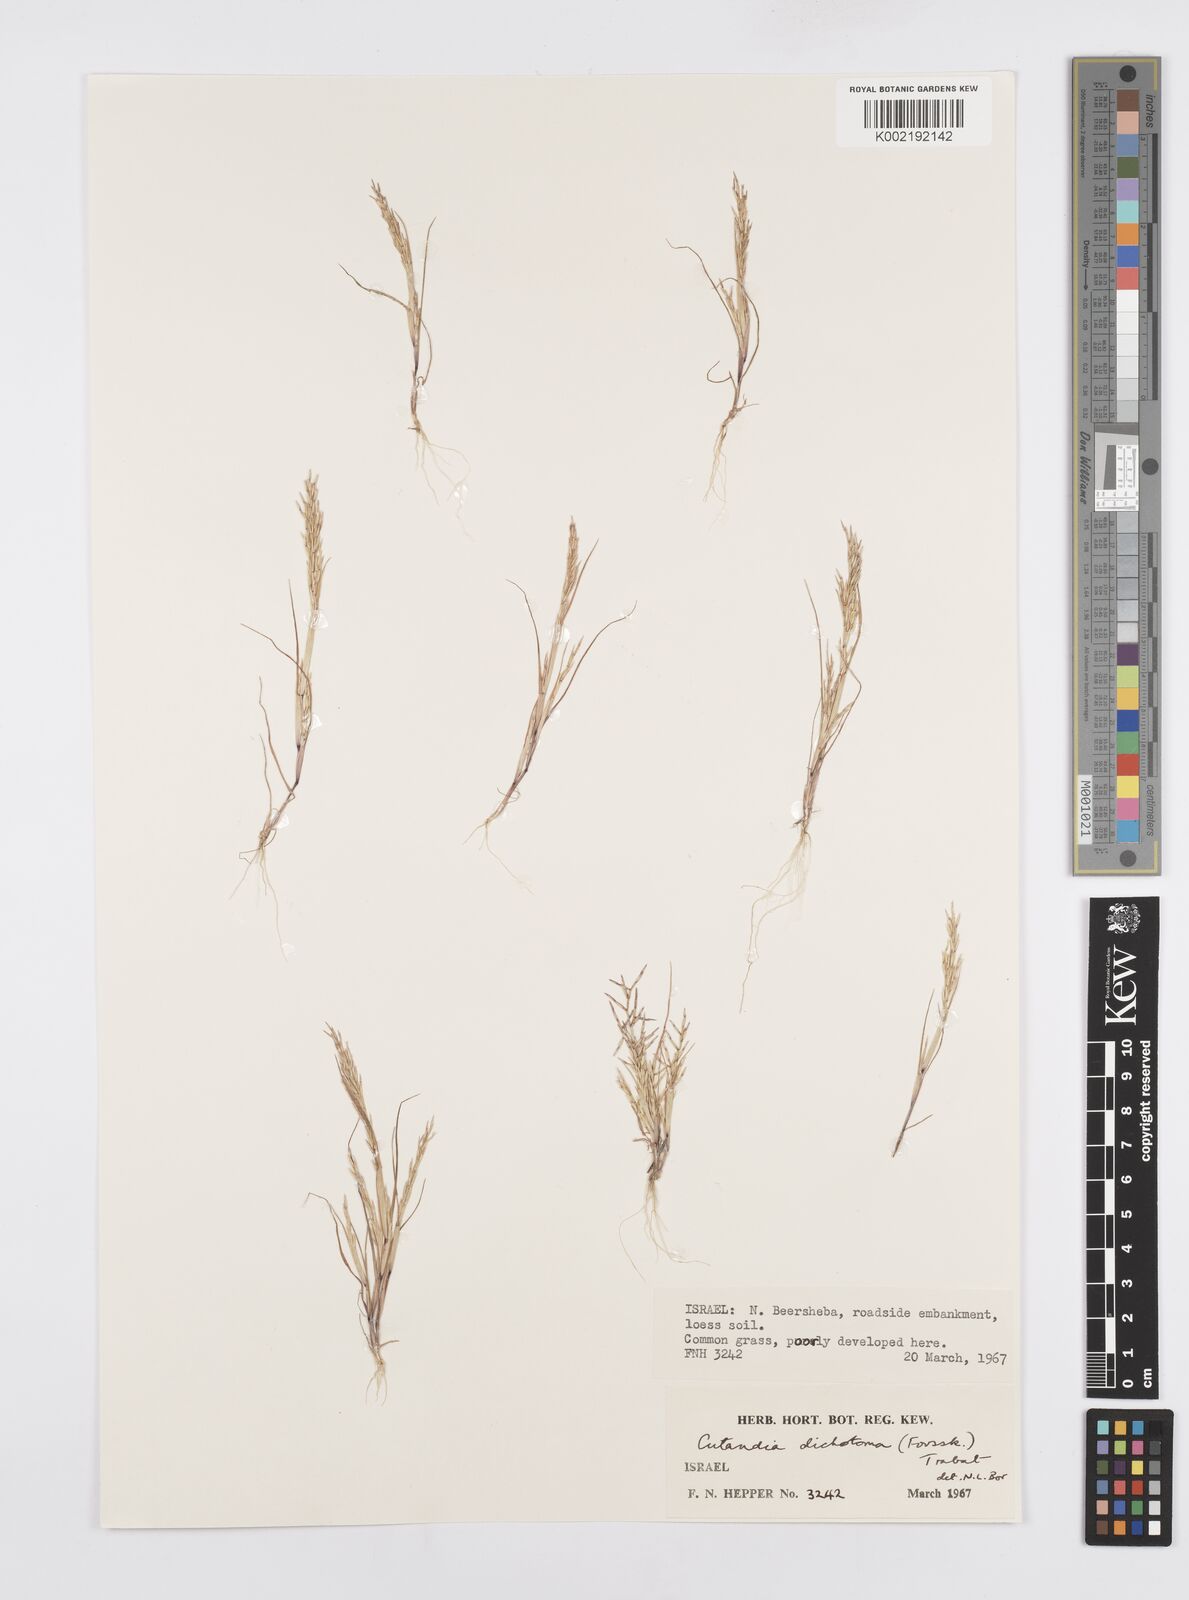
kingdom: Plantae
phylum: Tracheophyta
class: Liliopsida
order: Poales
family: Poaceae
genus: Cutandia
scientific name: Cutandia dichotoma
